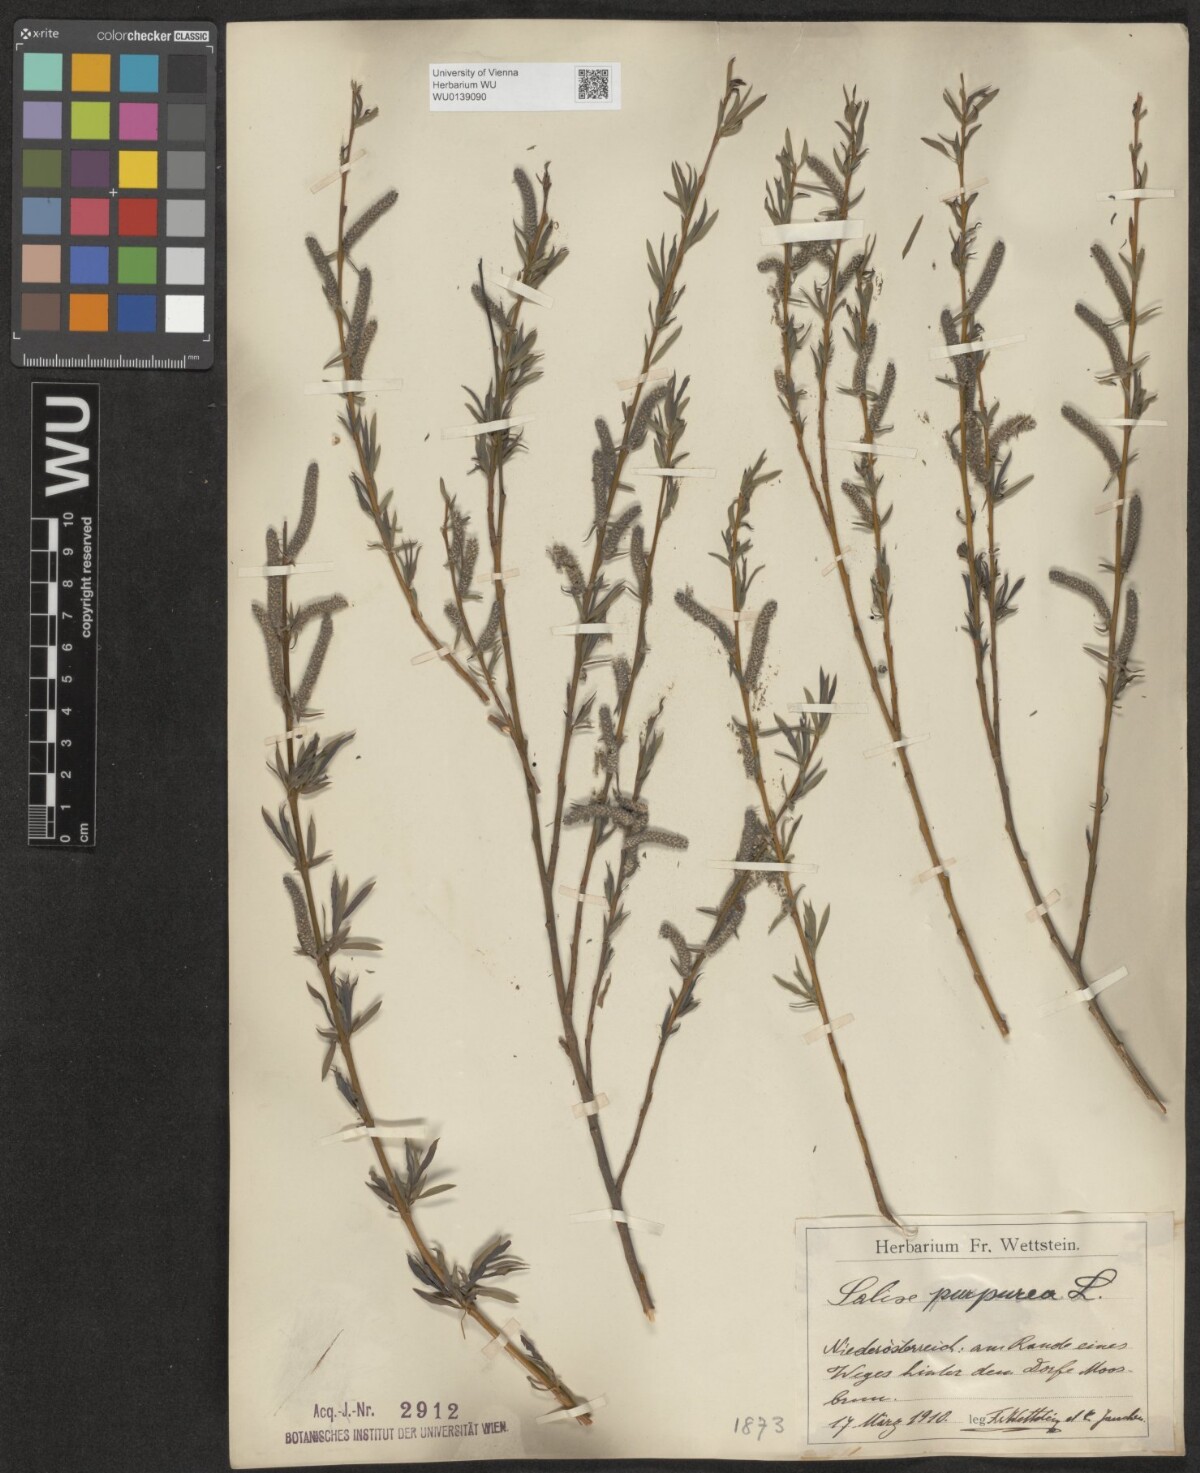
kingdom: Plantae
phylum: Tracheophyta
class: Magnoliopsida
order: Malpighiales
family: Salicaceae
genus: Salix
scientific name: Salix purpurea
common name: Purple willow
